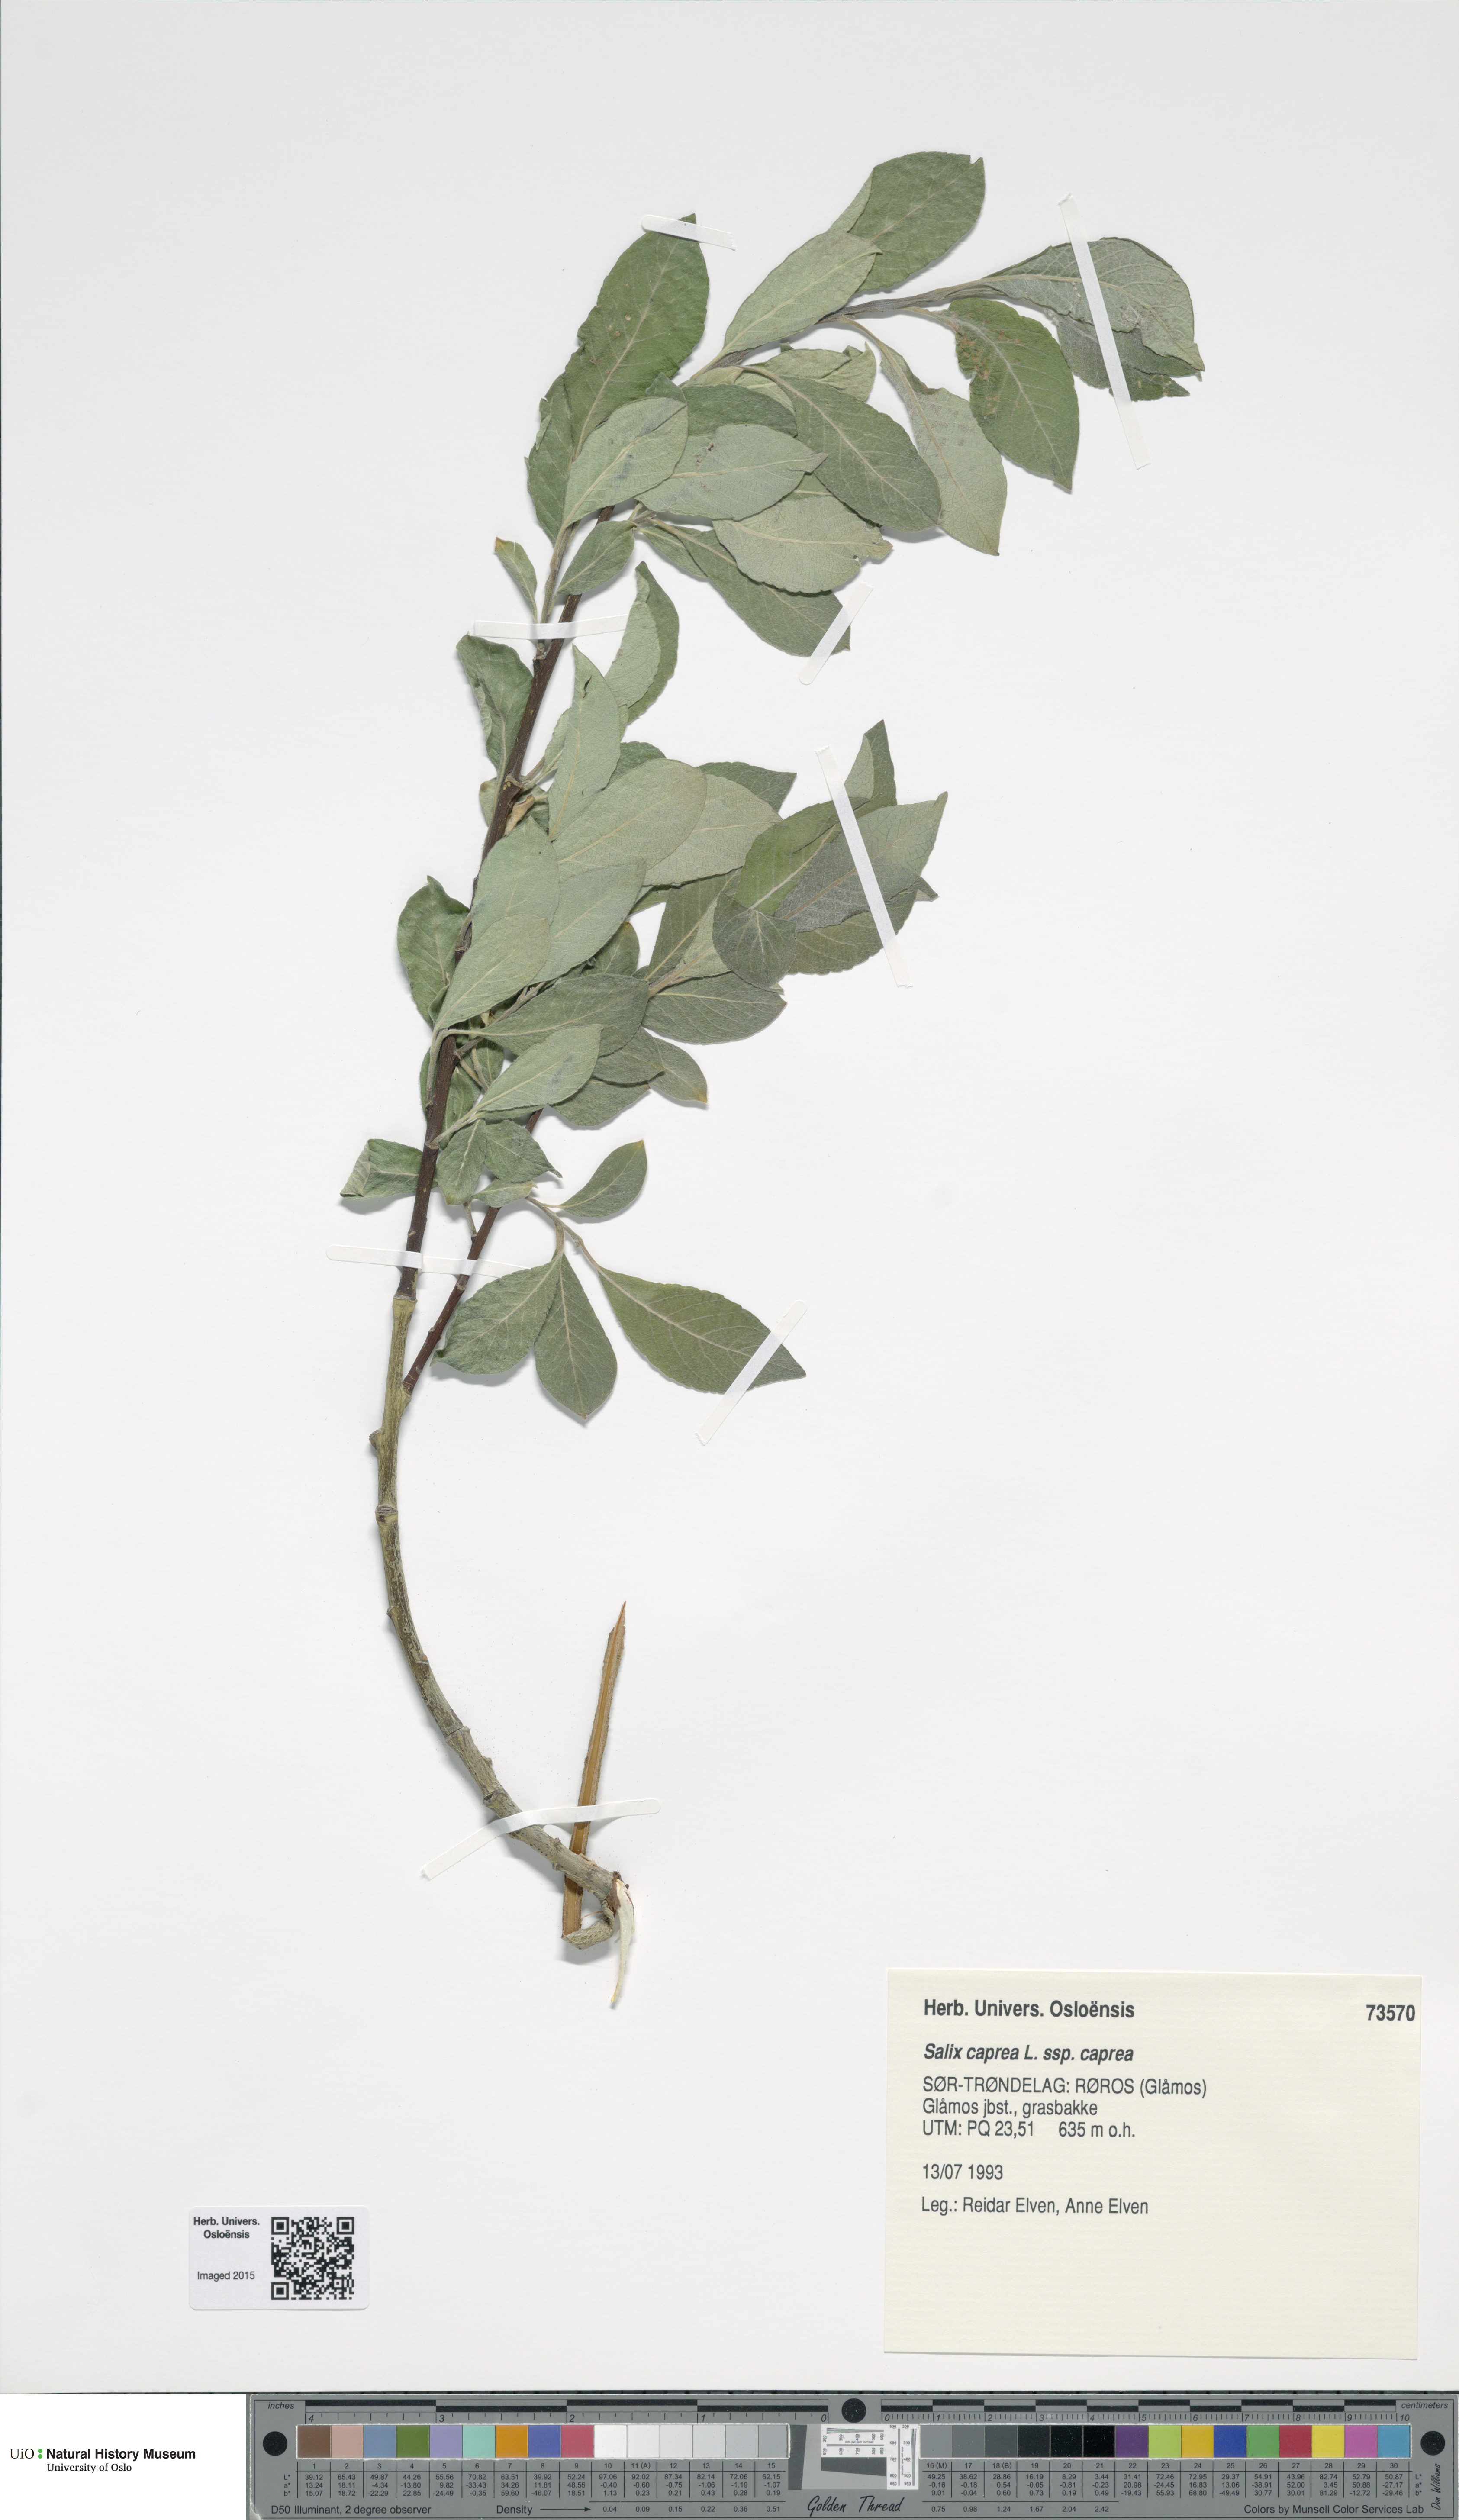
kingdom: Plantae
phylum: Tracheophyta
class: Magnoliopsida
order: Malpighiales
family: Salicaceae
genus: Salix
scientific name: Salix caprea
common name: Goat willow
